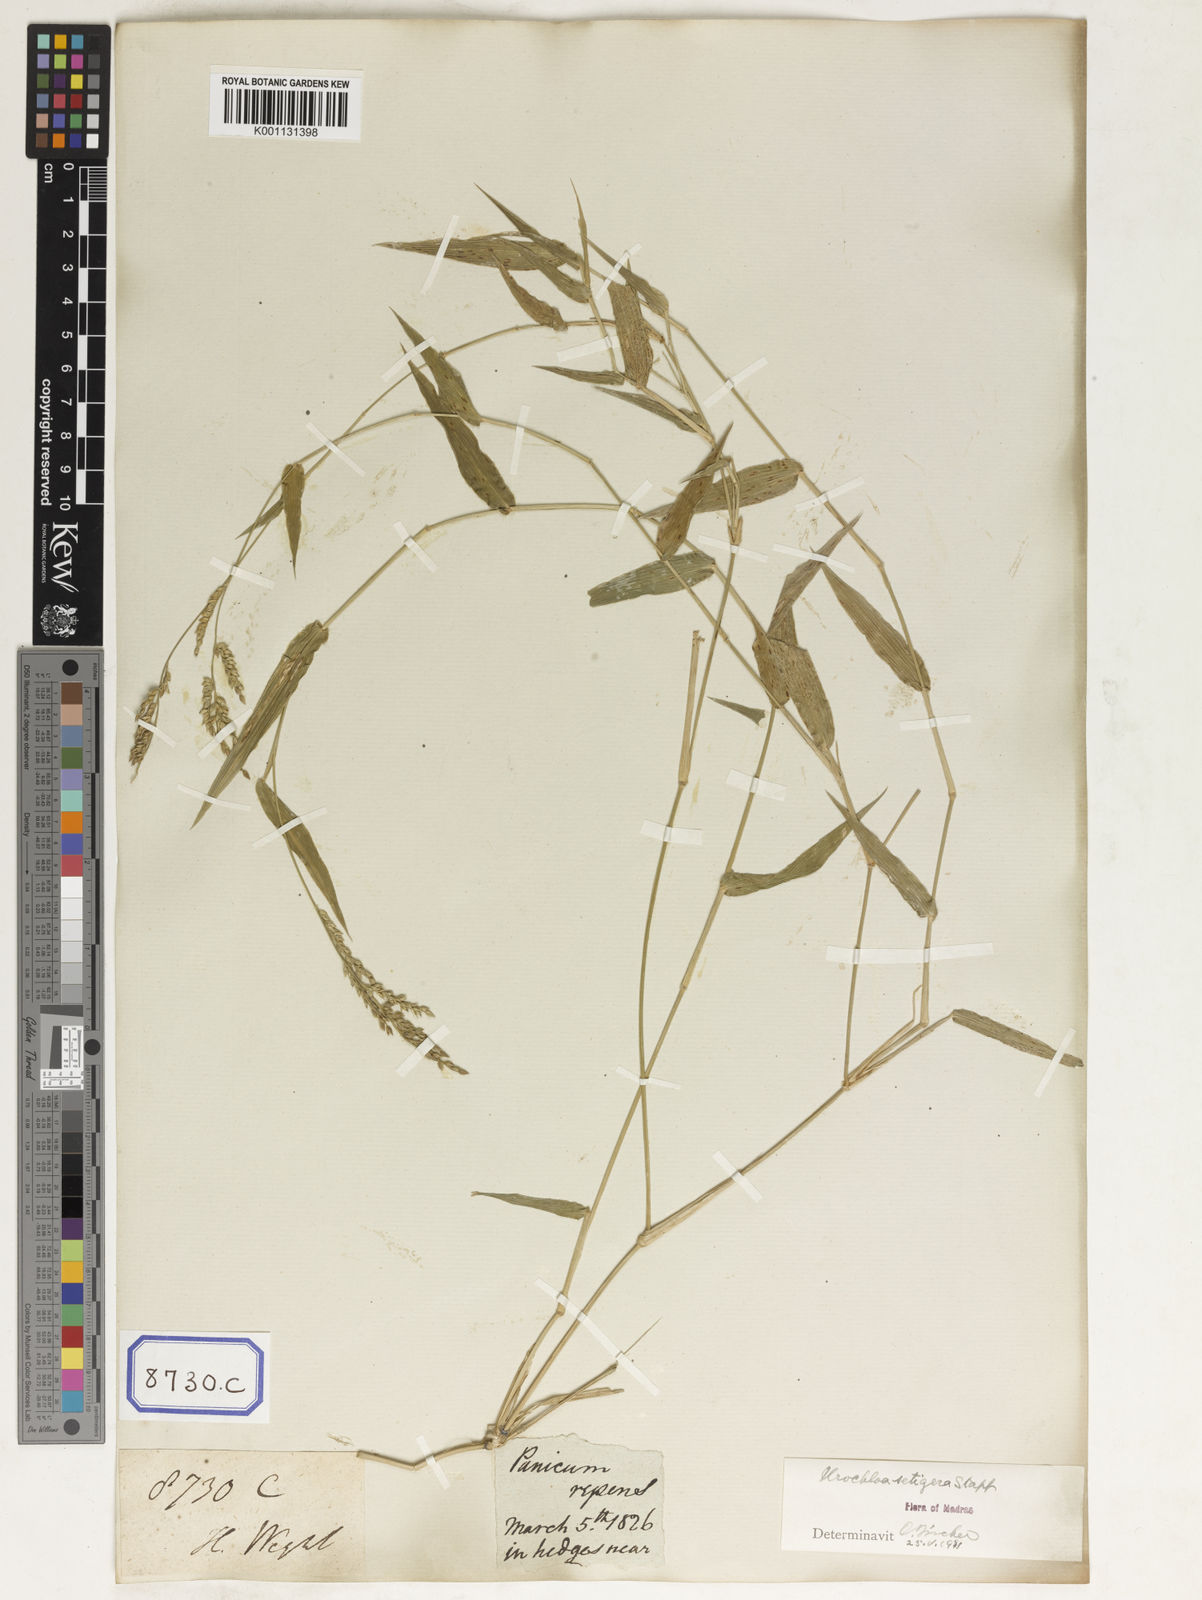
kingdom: Plantae
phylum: Tracheophyta
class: Liliopsida
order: Poales
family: Poaceae
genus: Panicum
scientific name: Panicum
